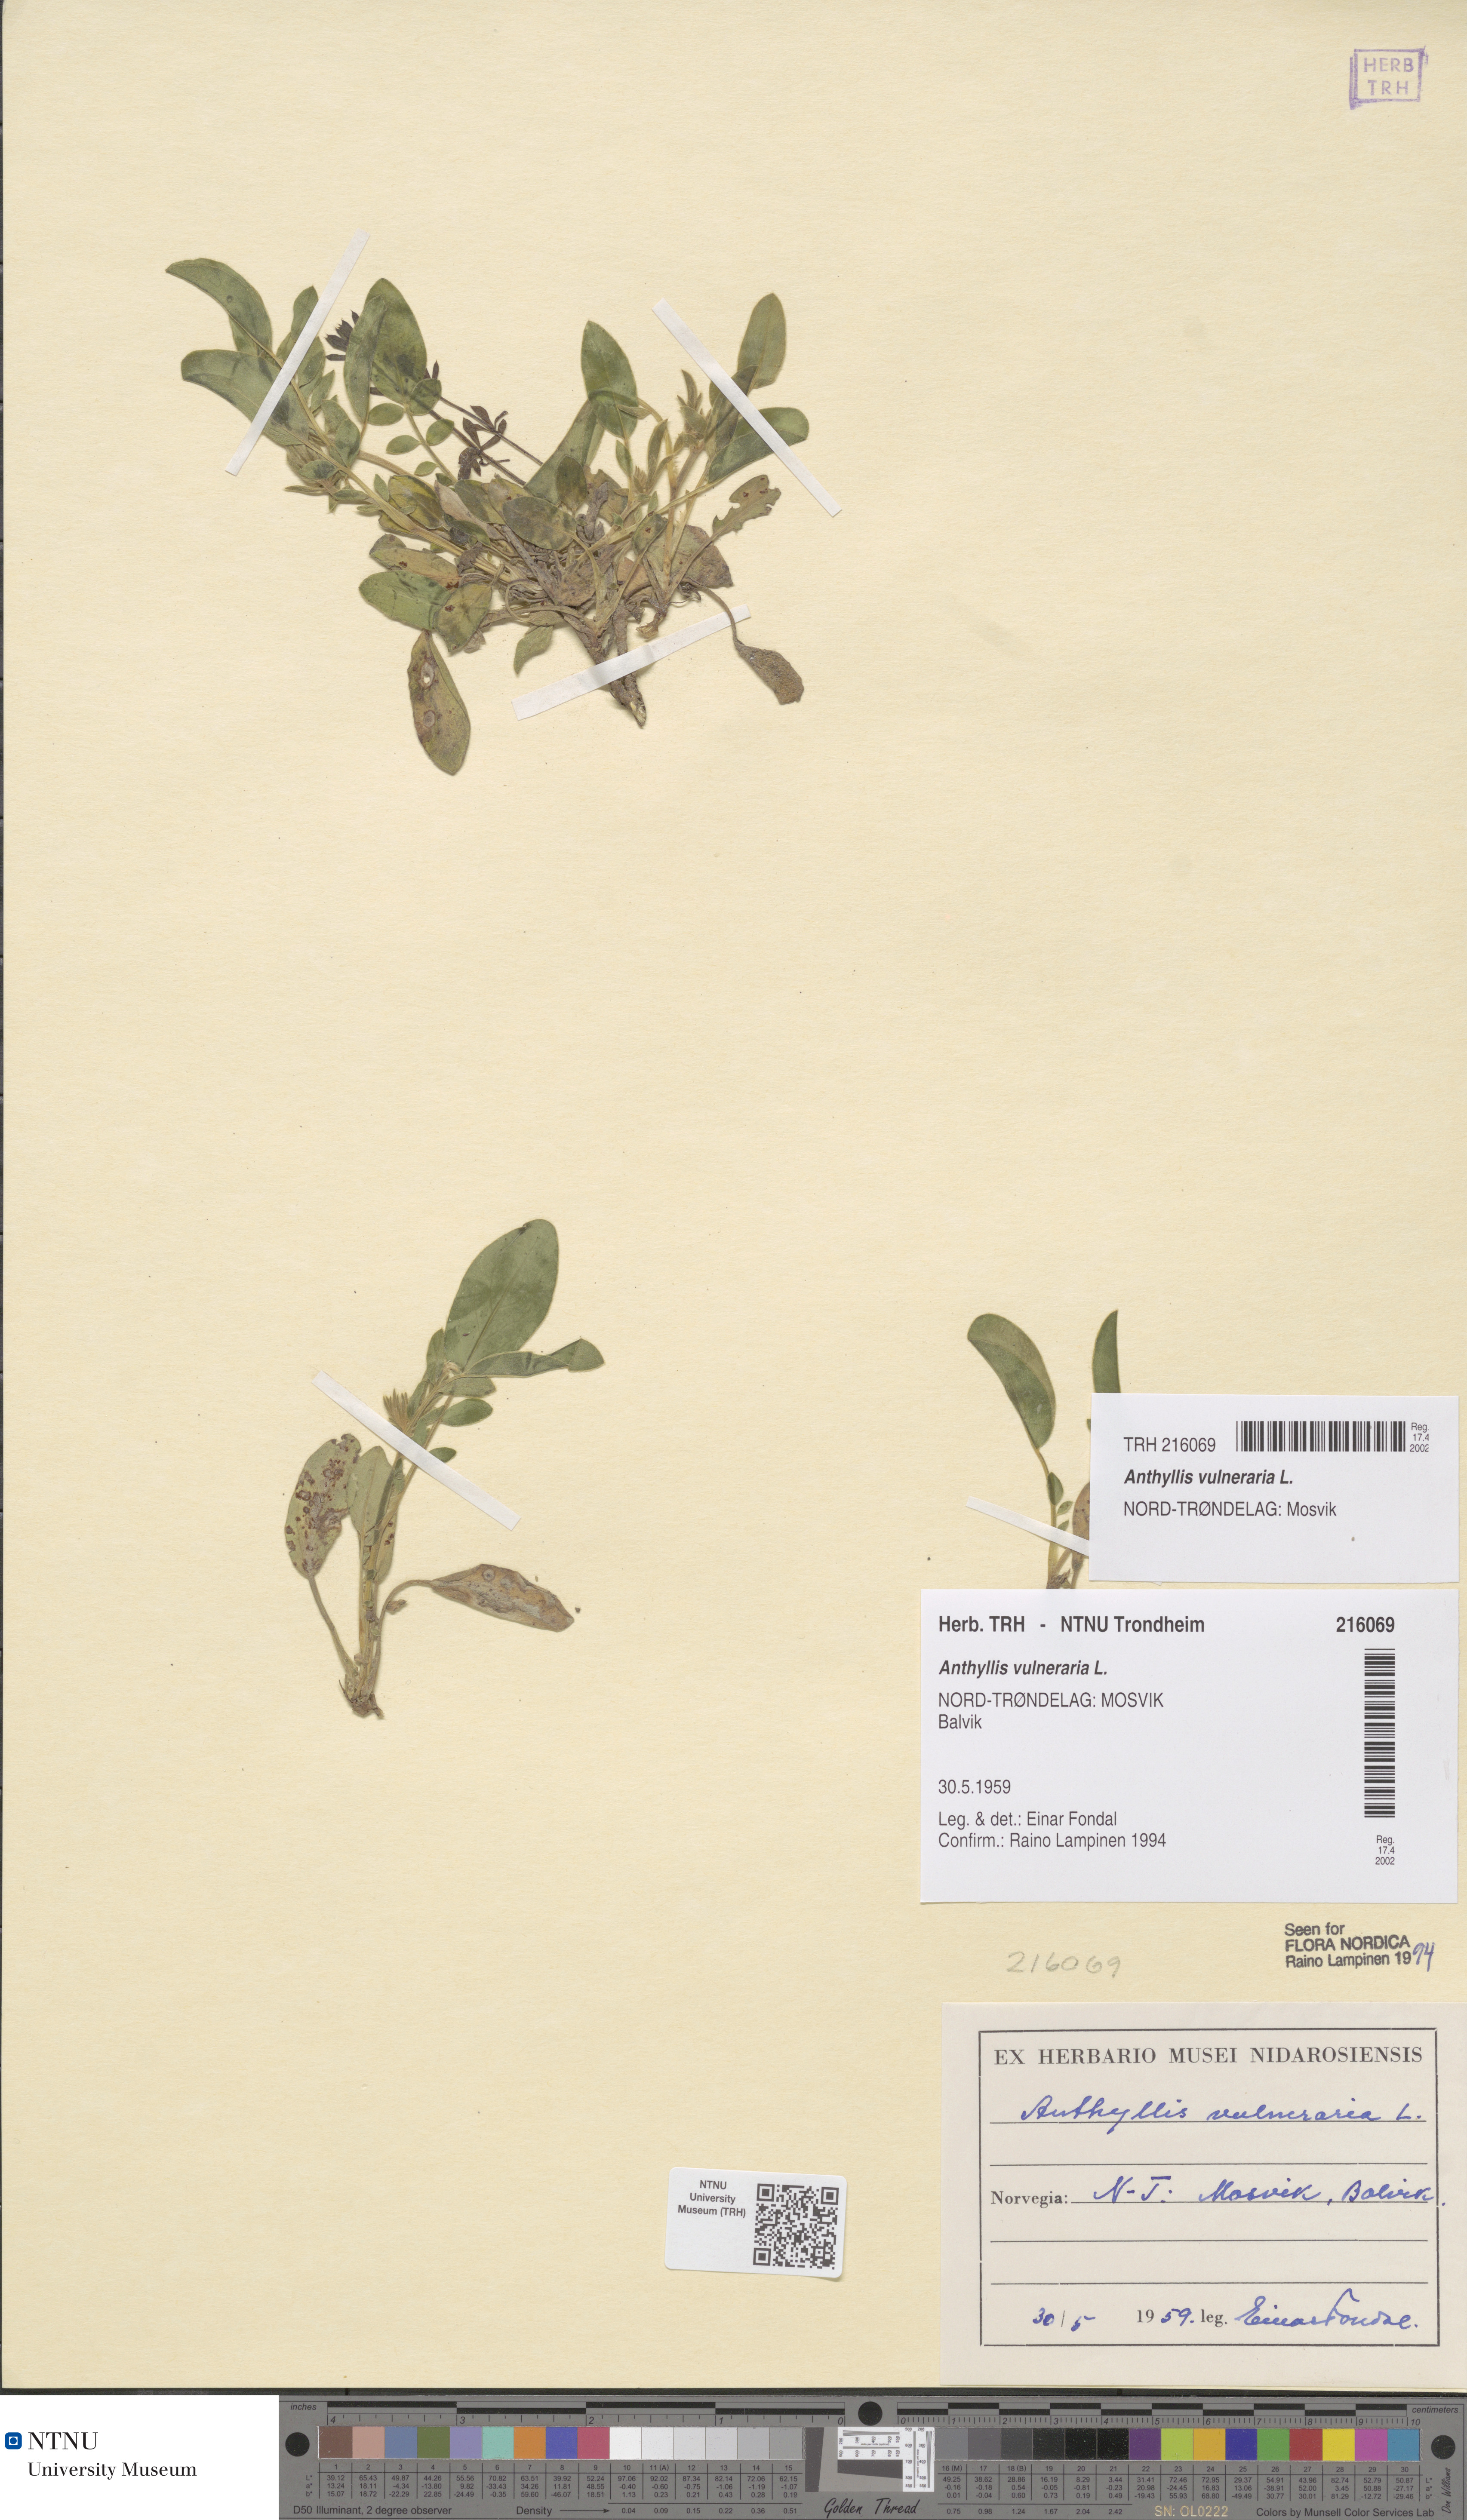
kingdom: Plantae
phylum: Tracheophyta
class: Magnoliopsida
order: Fabales
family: Fabaceae
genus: Anthyllis
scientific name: Anthyllis vulneraria
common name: Kidney vetch
